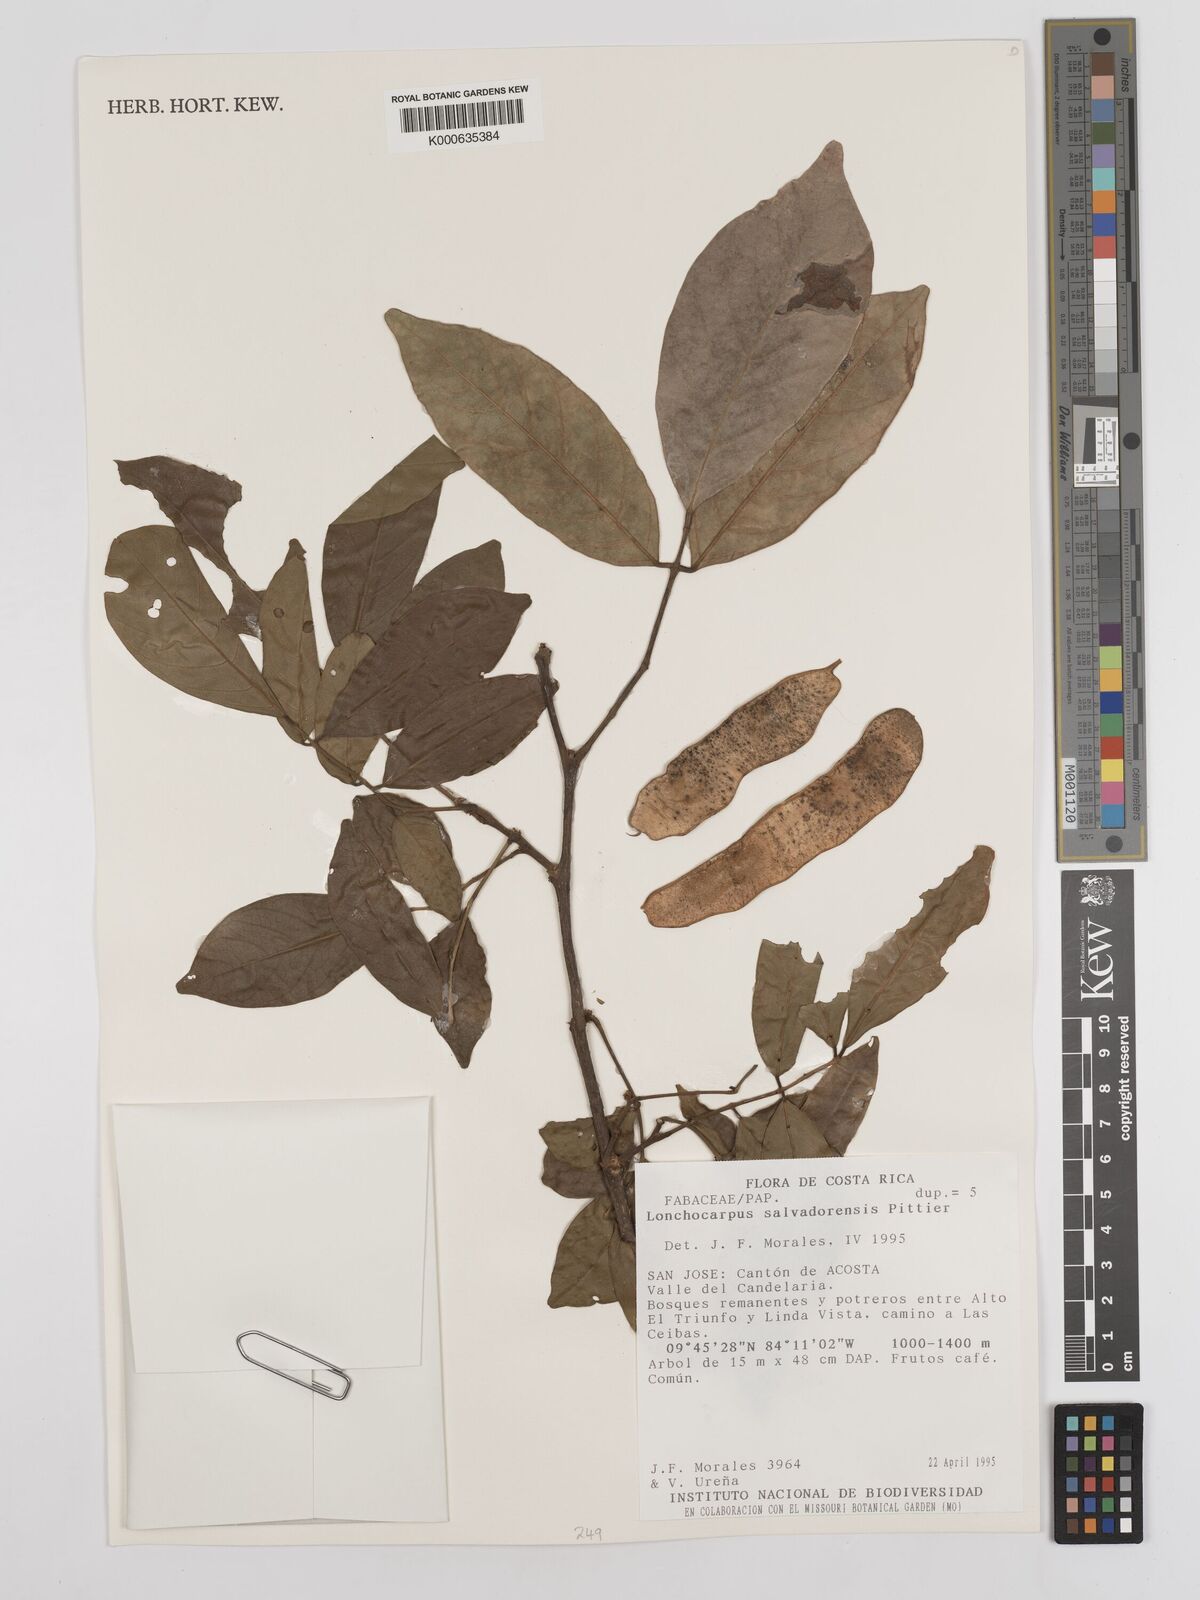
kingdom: Plantae
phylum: Tracheophyta
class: Magnoliopsida
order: Fabales
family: Fabaceae
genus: Lonchocarpus
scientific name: Lonchocarpus salvadorensis
